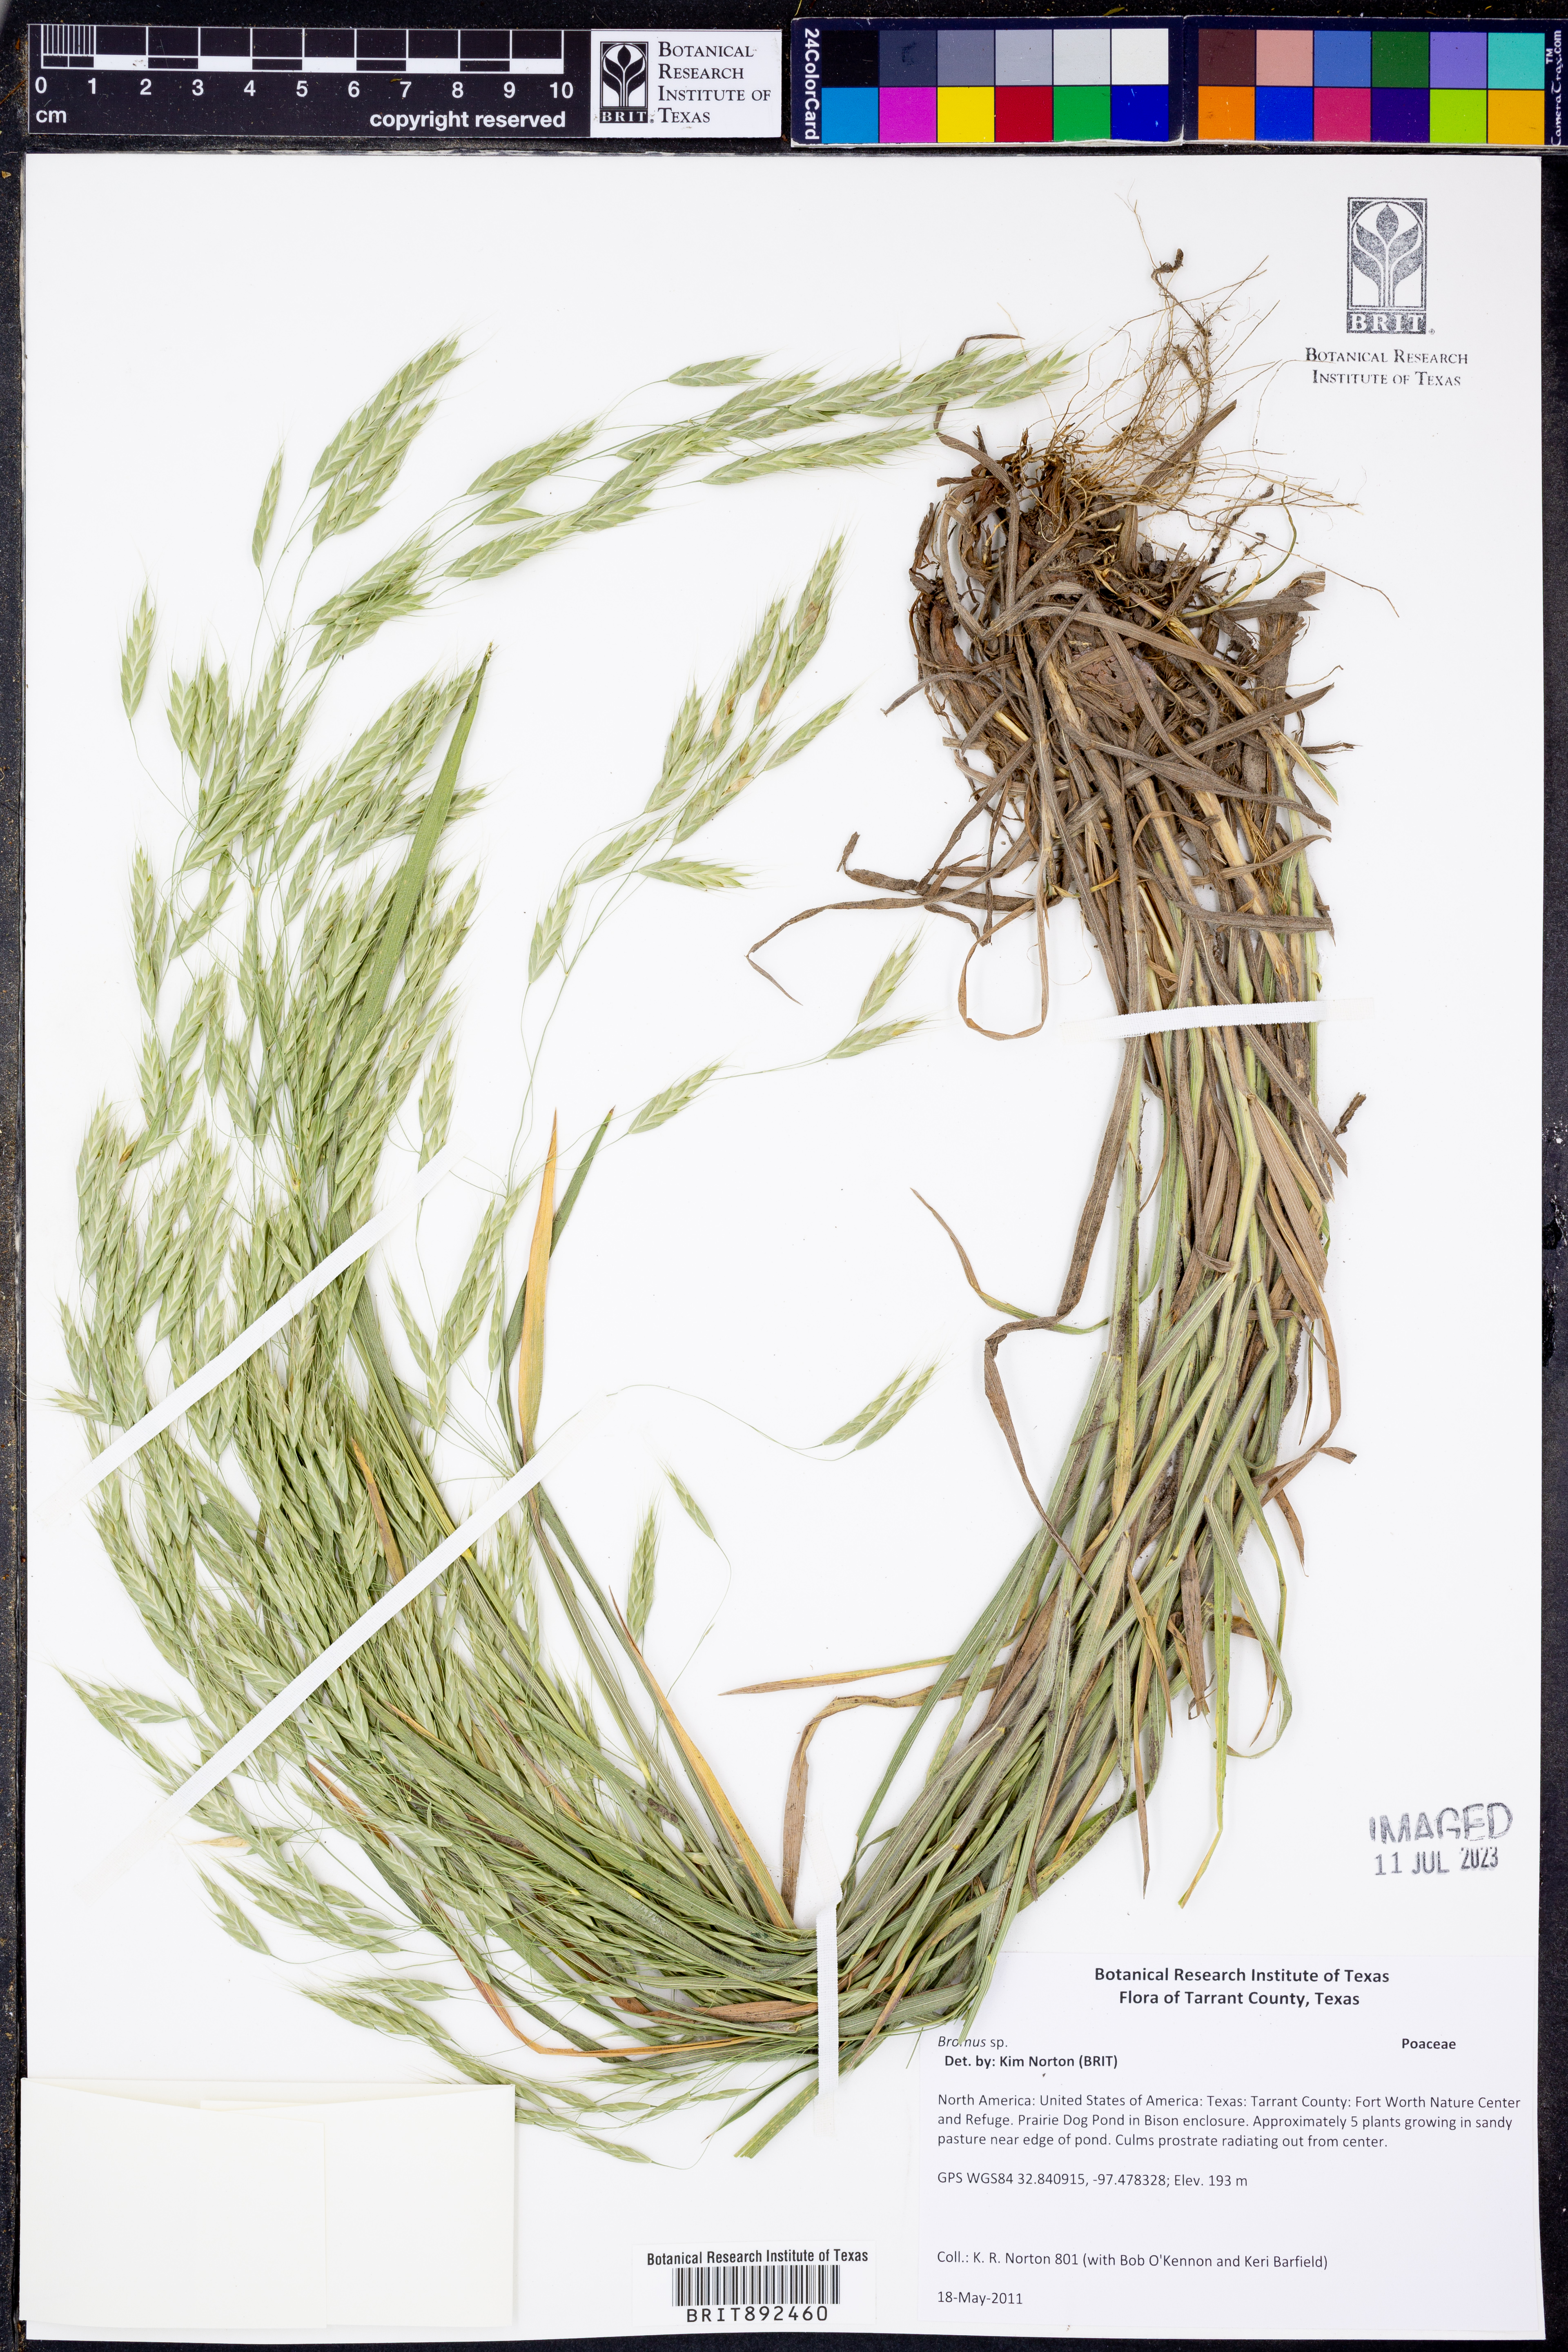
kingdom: Plantae
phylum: Tracheophyta
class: Liliopsida
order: Poales
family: Poaceae
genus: Bromus
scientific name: Bromus
